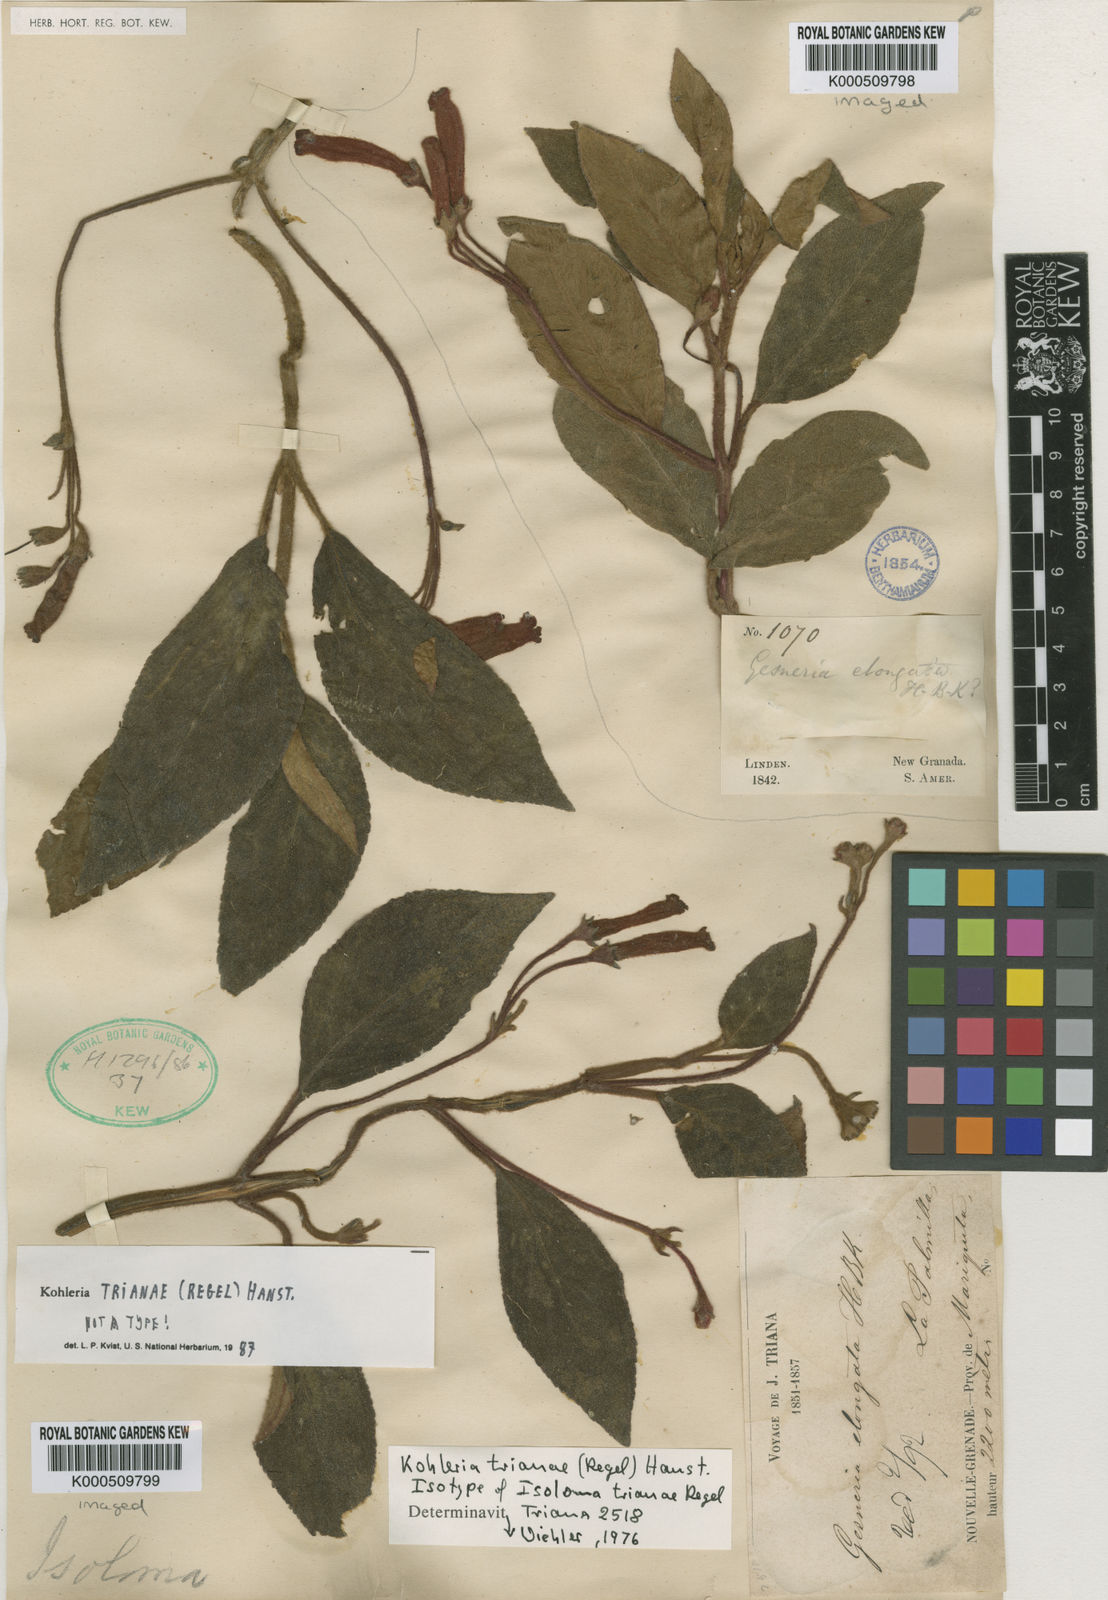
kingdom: Plantae
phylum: Tracheophyta
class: Magnoliopsida
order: Lamiales
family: Gesneriaceae
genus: Kohleria
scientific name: Kohleria trianae
